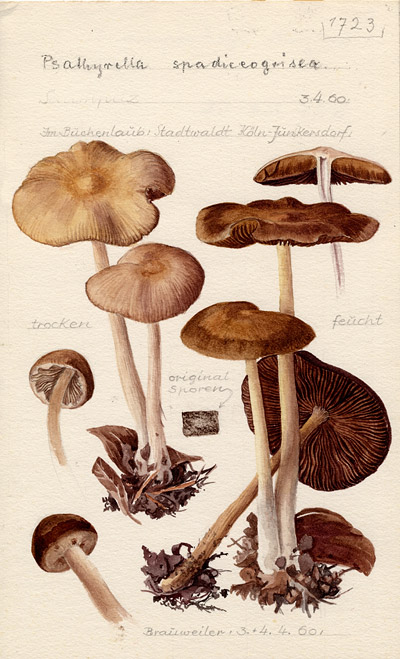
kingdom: Fungi
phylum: Basidiomycota
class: Agaricomycetes
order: Agaricales
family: Psathyrellaceae
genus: Psathyrella
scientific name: Psathyrella spadiceogrisea
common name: Spring brittlestem
